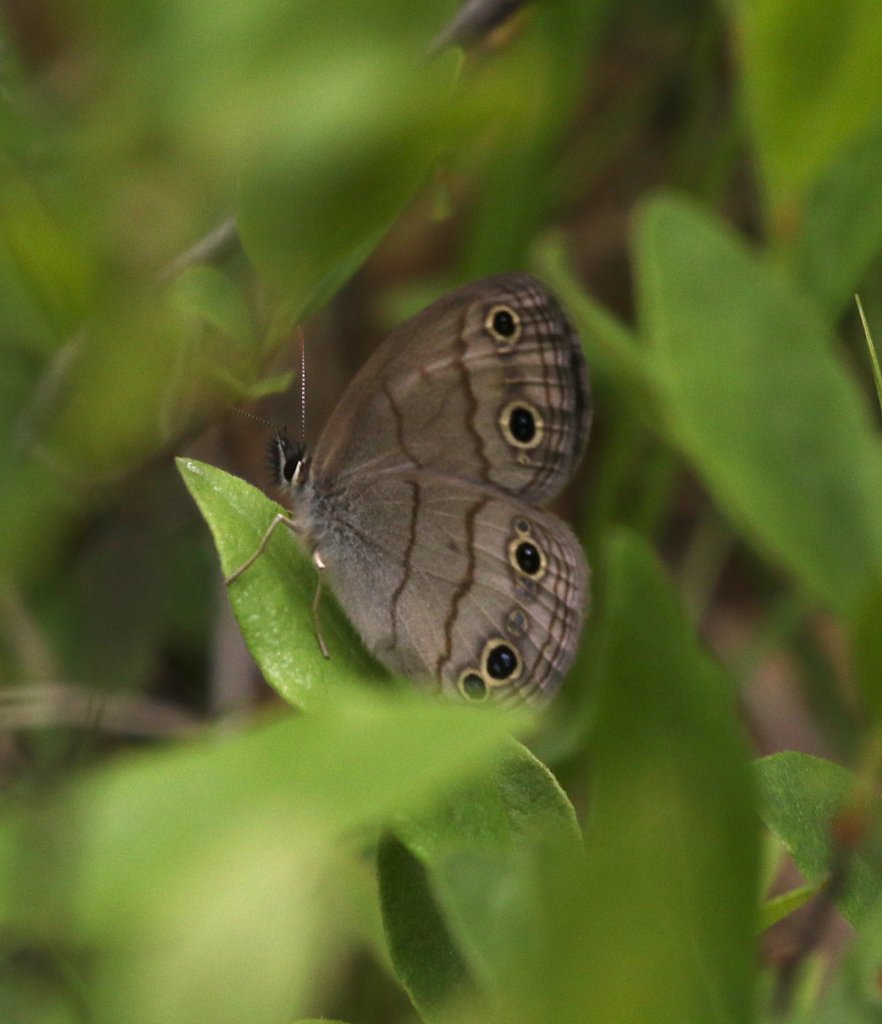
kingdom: Animalia
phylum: Arthropoda
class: Insecta
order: Lepidoptera
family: Nymphalidae
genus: Euptychia
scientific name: Euptychia cymela
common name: Little Wood Satyr
